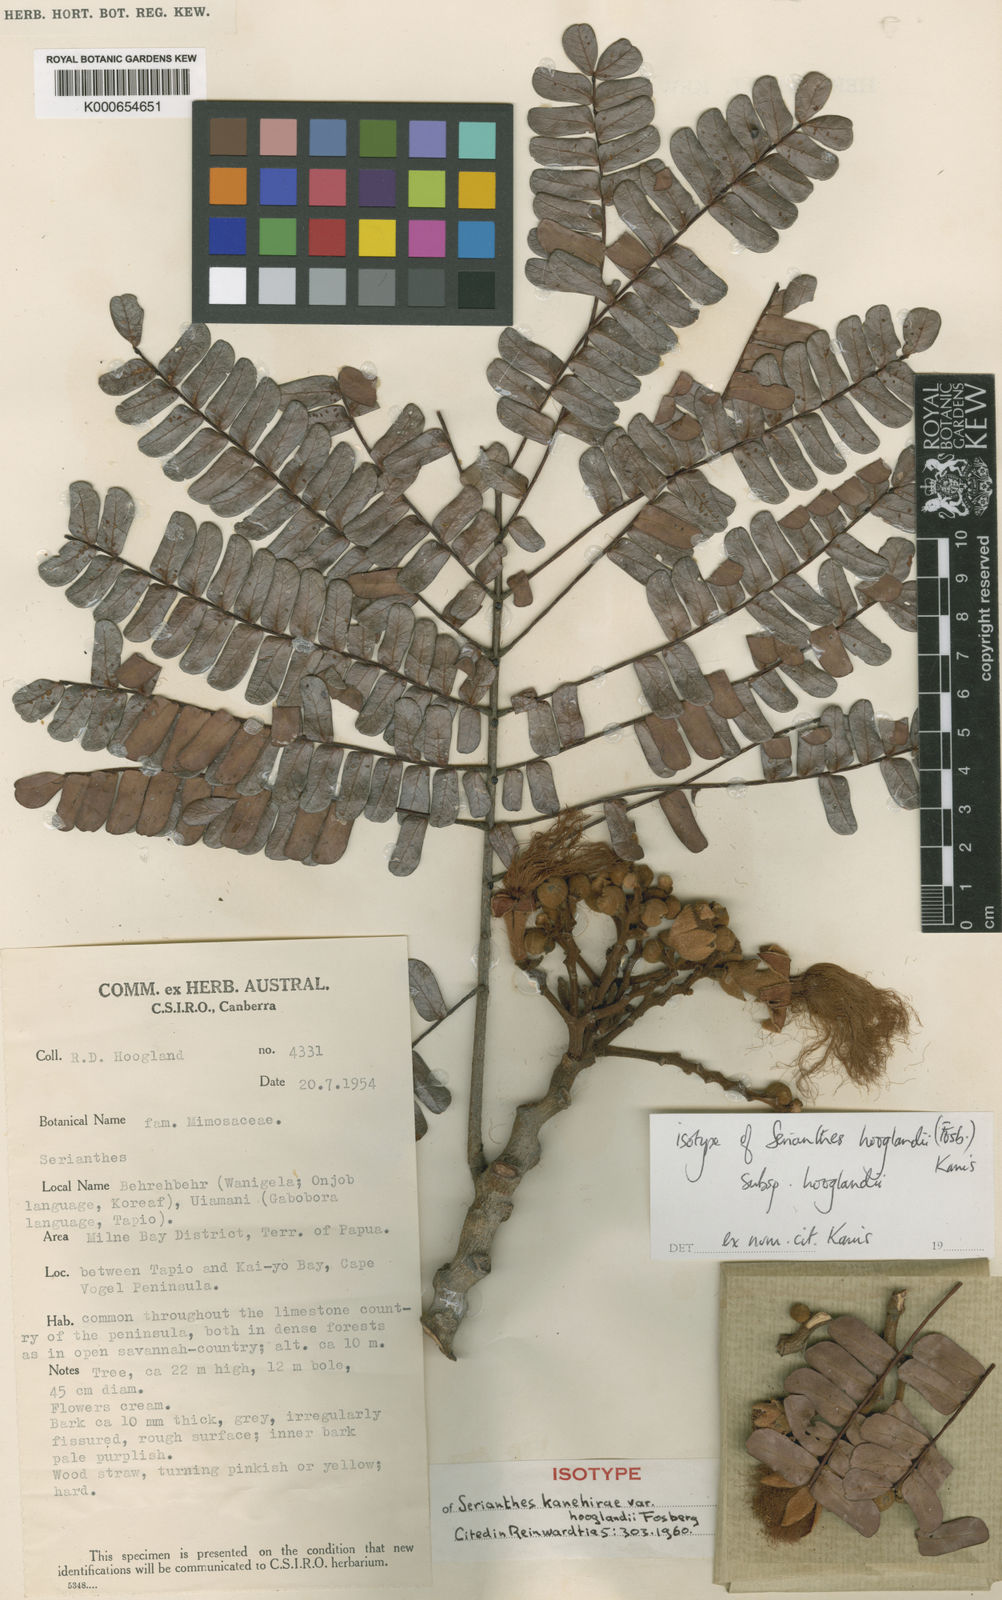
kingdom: Plantae
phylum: Tracheophyta
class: Magnoliopsida
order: Fabales
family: Fabaceae
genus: Serianthes
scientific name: Serianthes hooglandii
